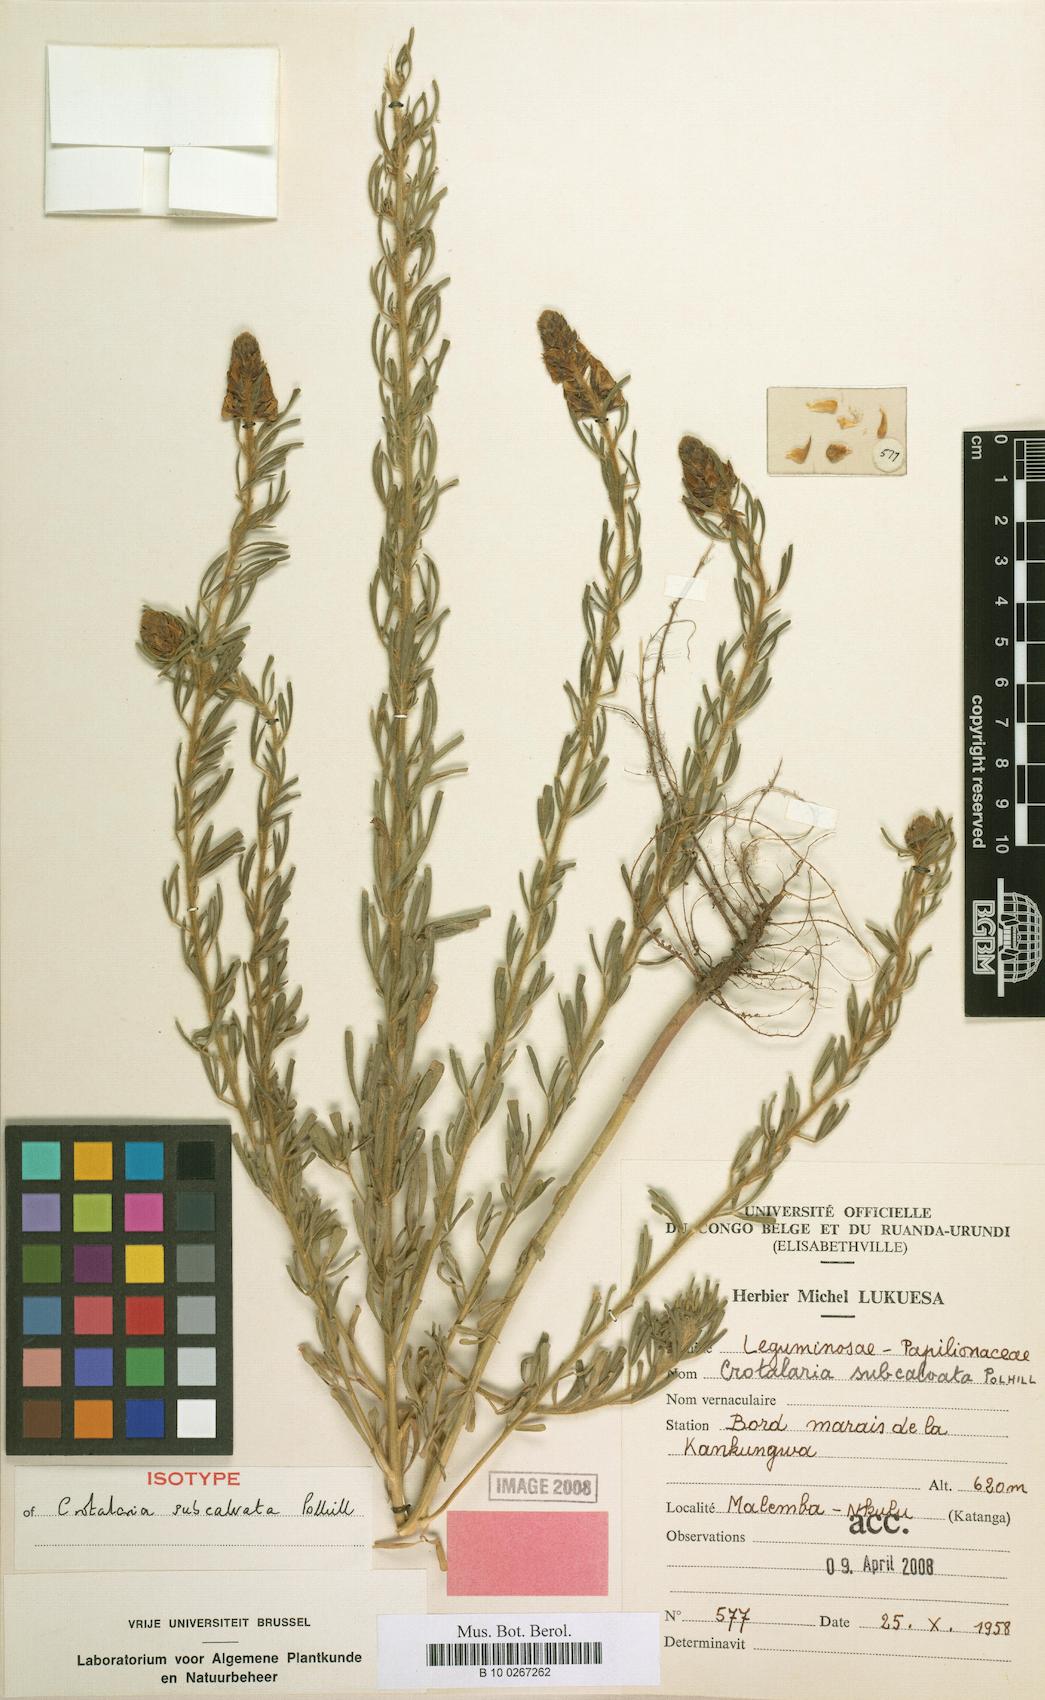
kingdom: Plantae
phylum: Tracheophyta
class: Magnoliopsida
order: Fabales
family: Fabaceae
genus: Crotalaria
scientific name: Crotalaria subcalvata
